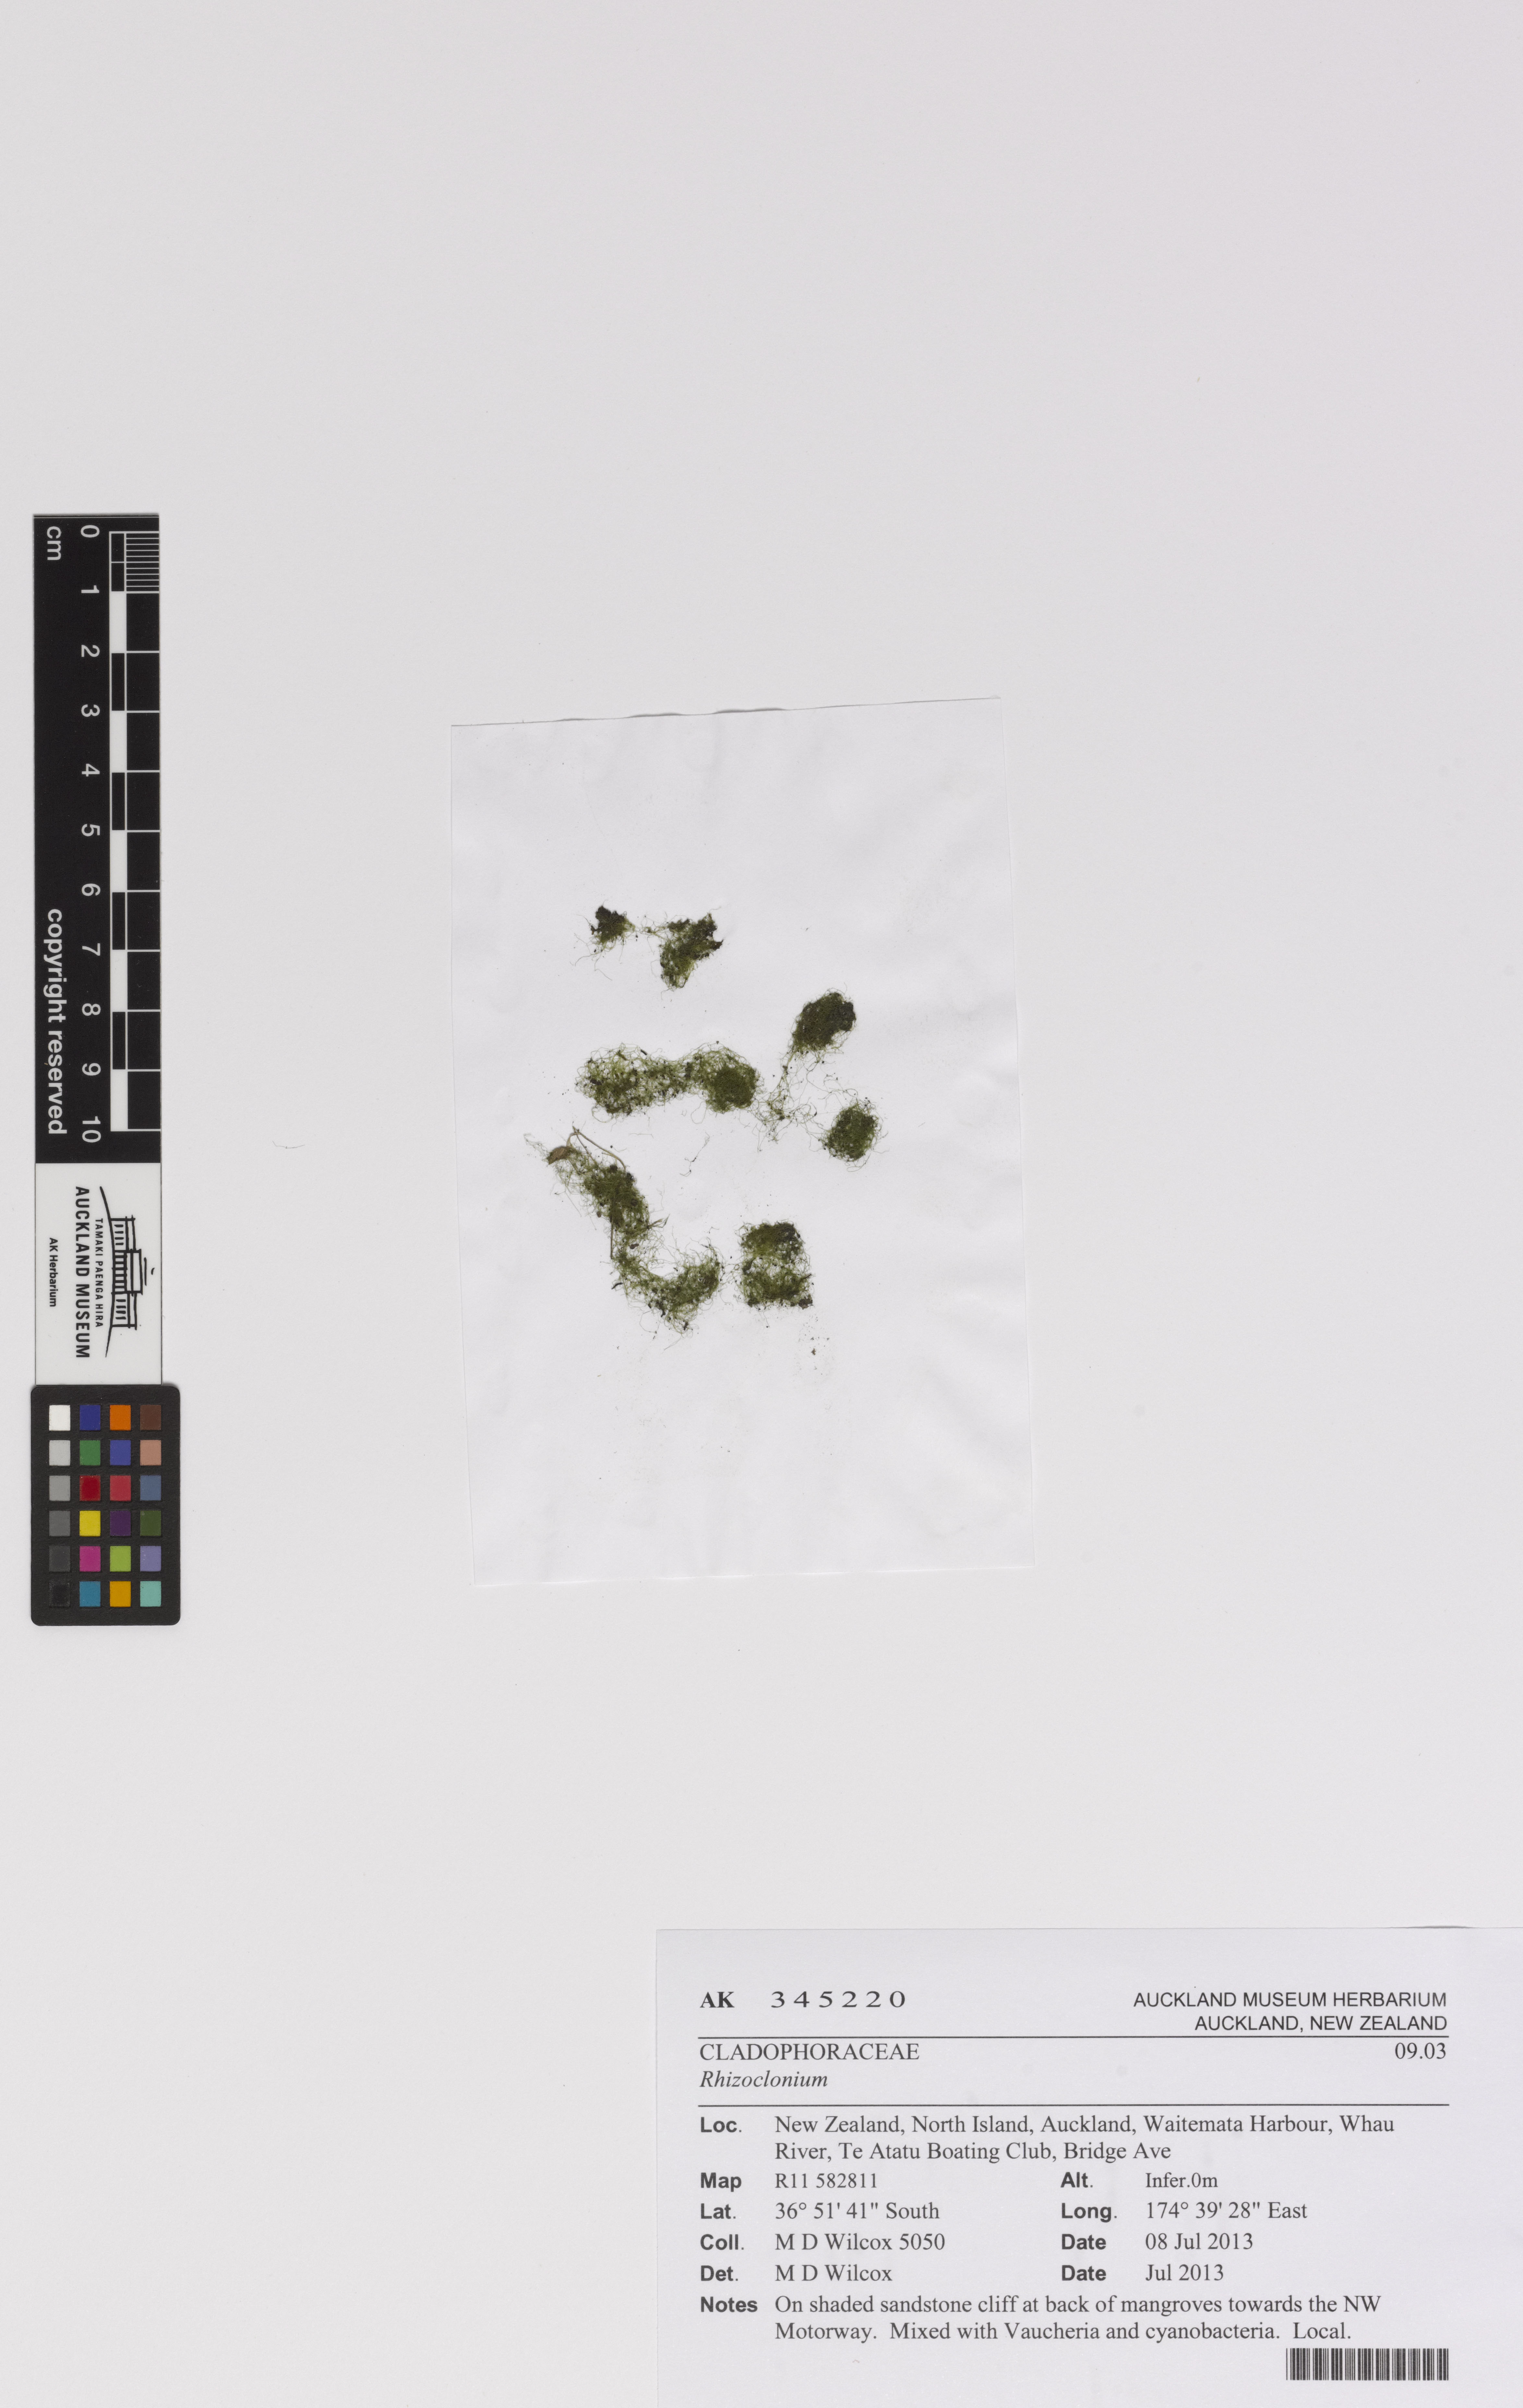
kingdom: Plantae
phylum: Chlorophyta
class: Ulvophyceae
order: Cladophorales
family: Cladophoraceae
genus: Rhizoclonium
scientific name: Rhizoclonium riparium
